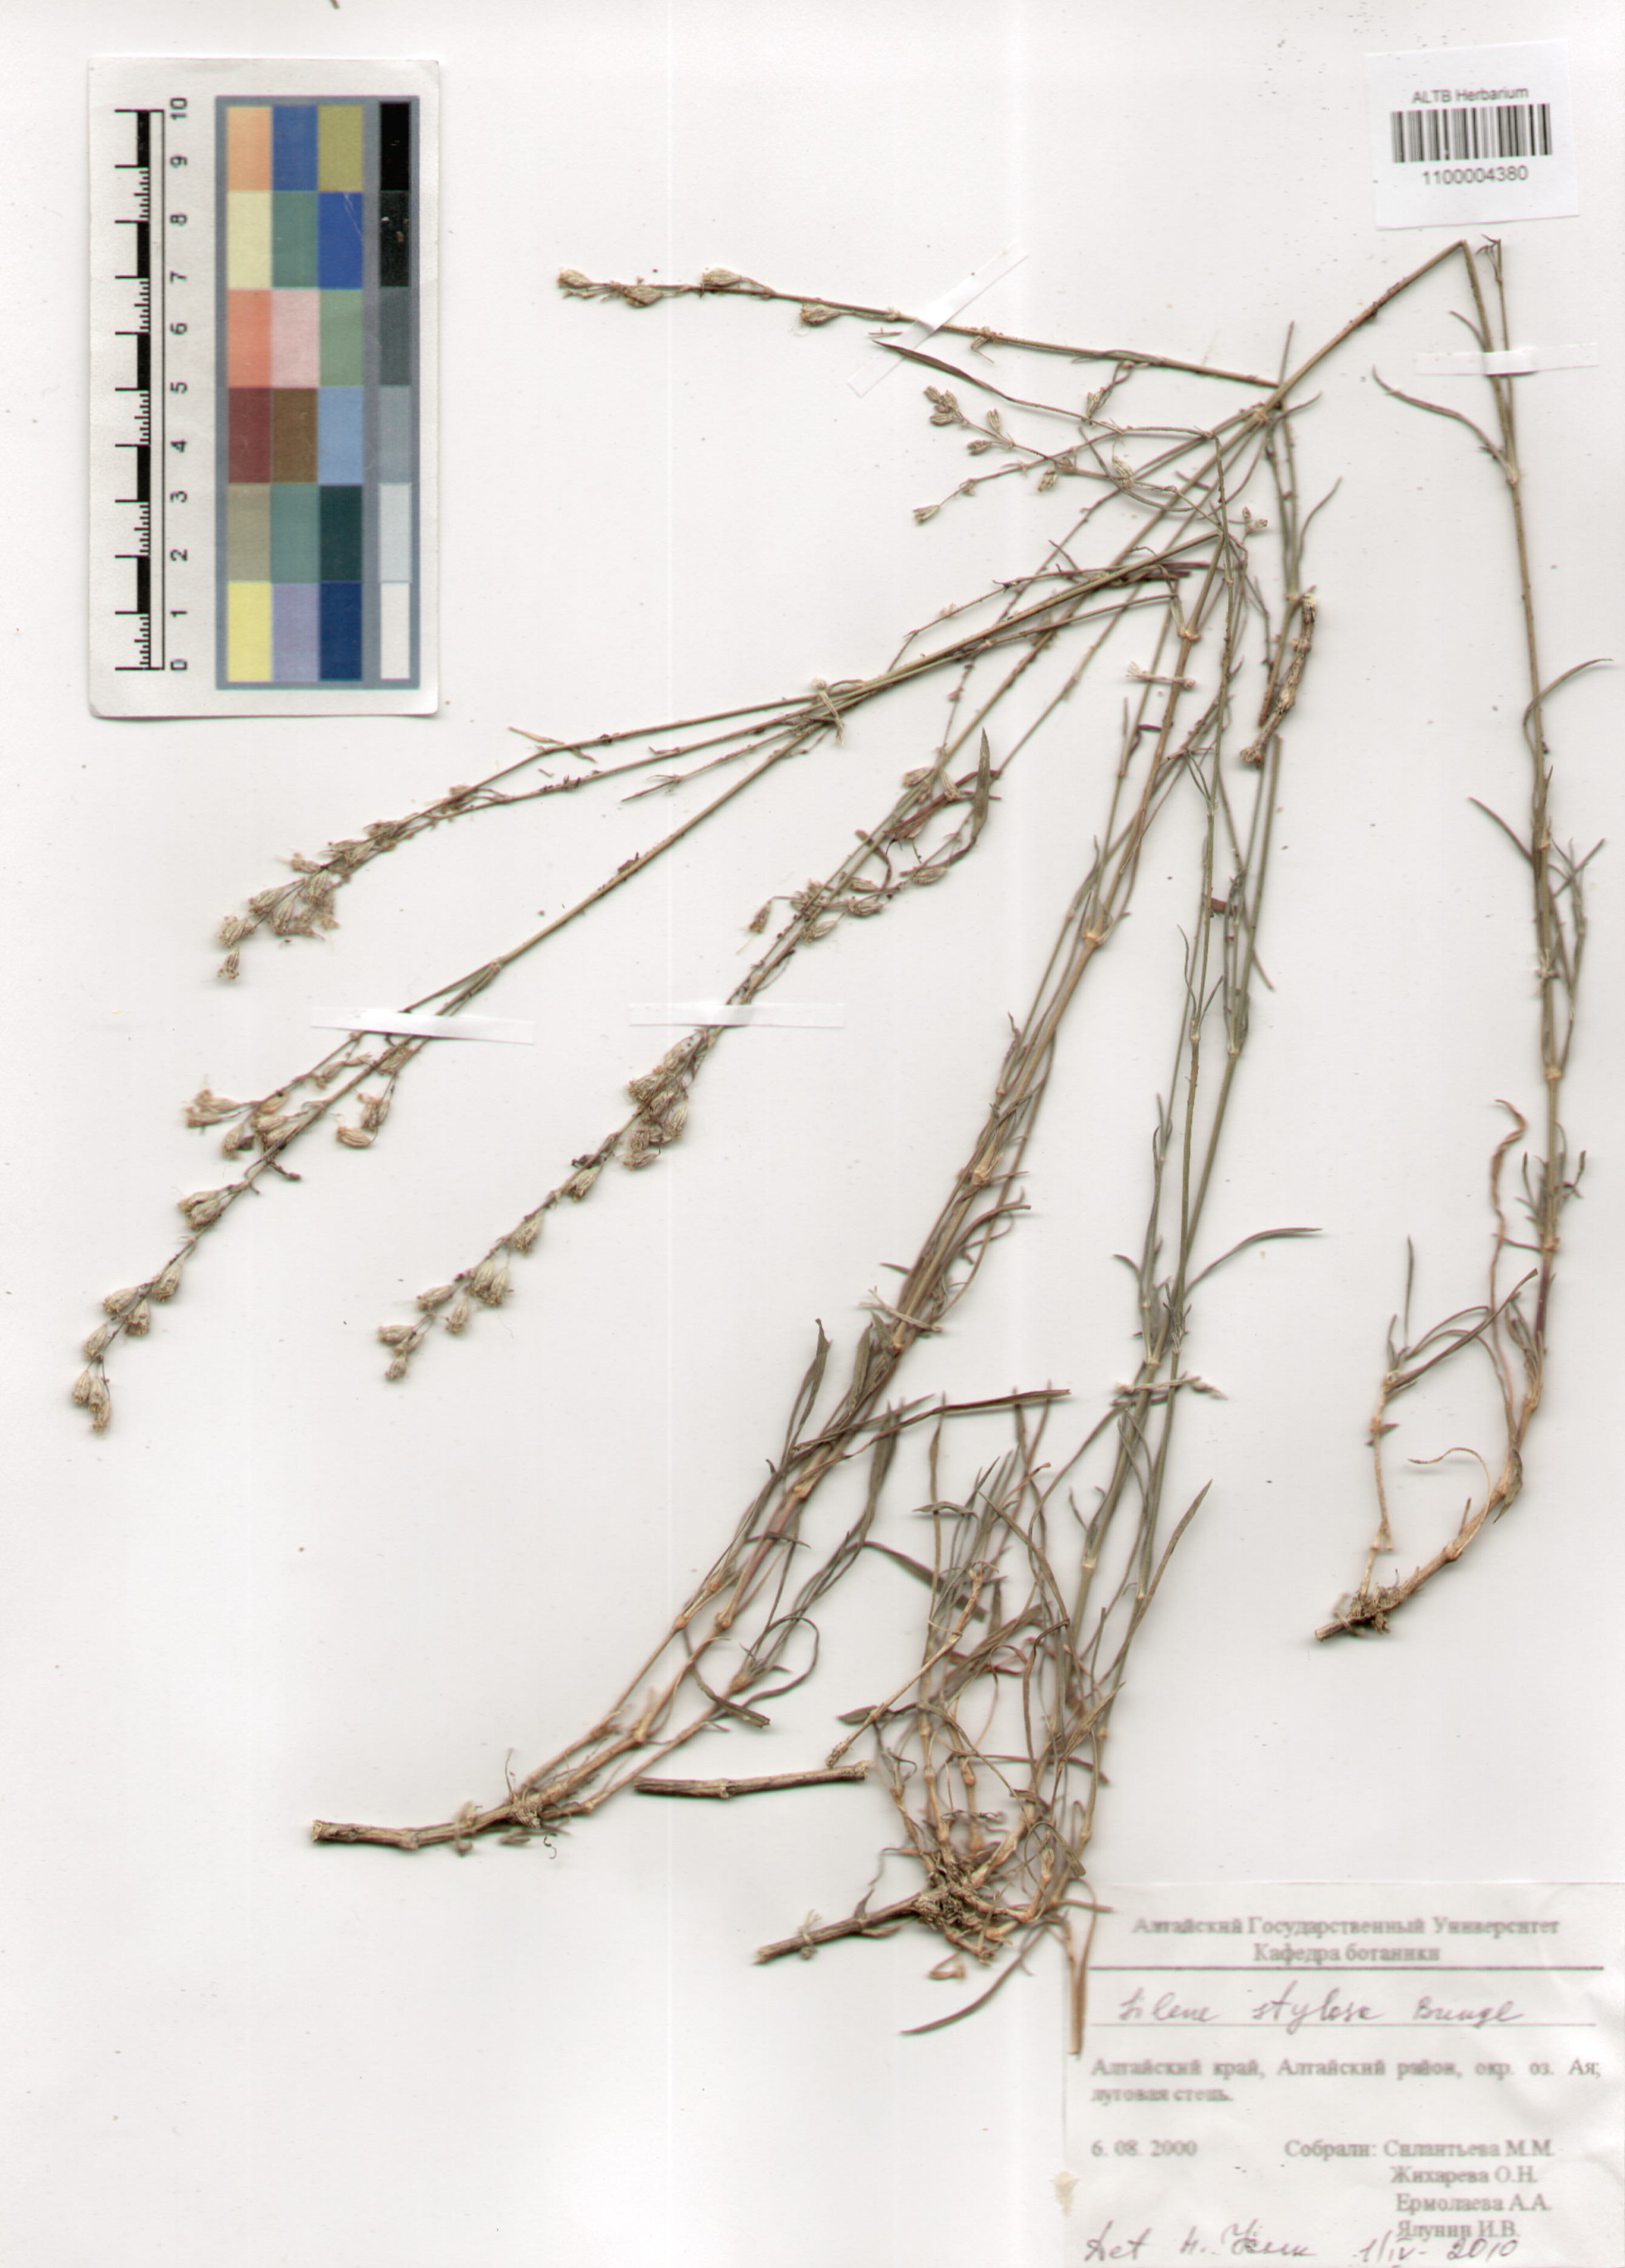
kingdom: Plantae
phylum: Tracheophyta
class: Magnoliopsida
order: Caryophyllales
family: Caryophyllaceae
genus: Silene
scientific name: Silene graminifolia
